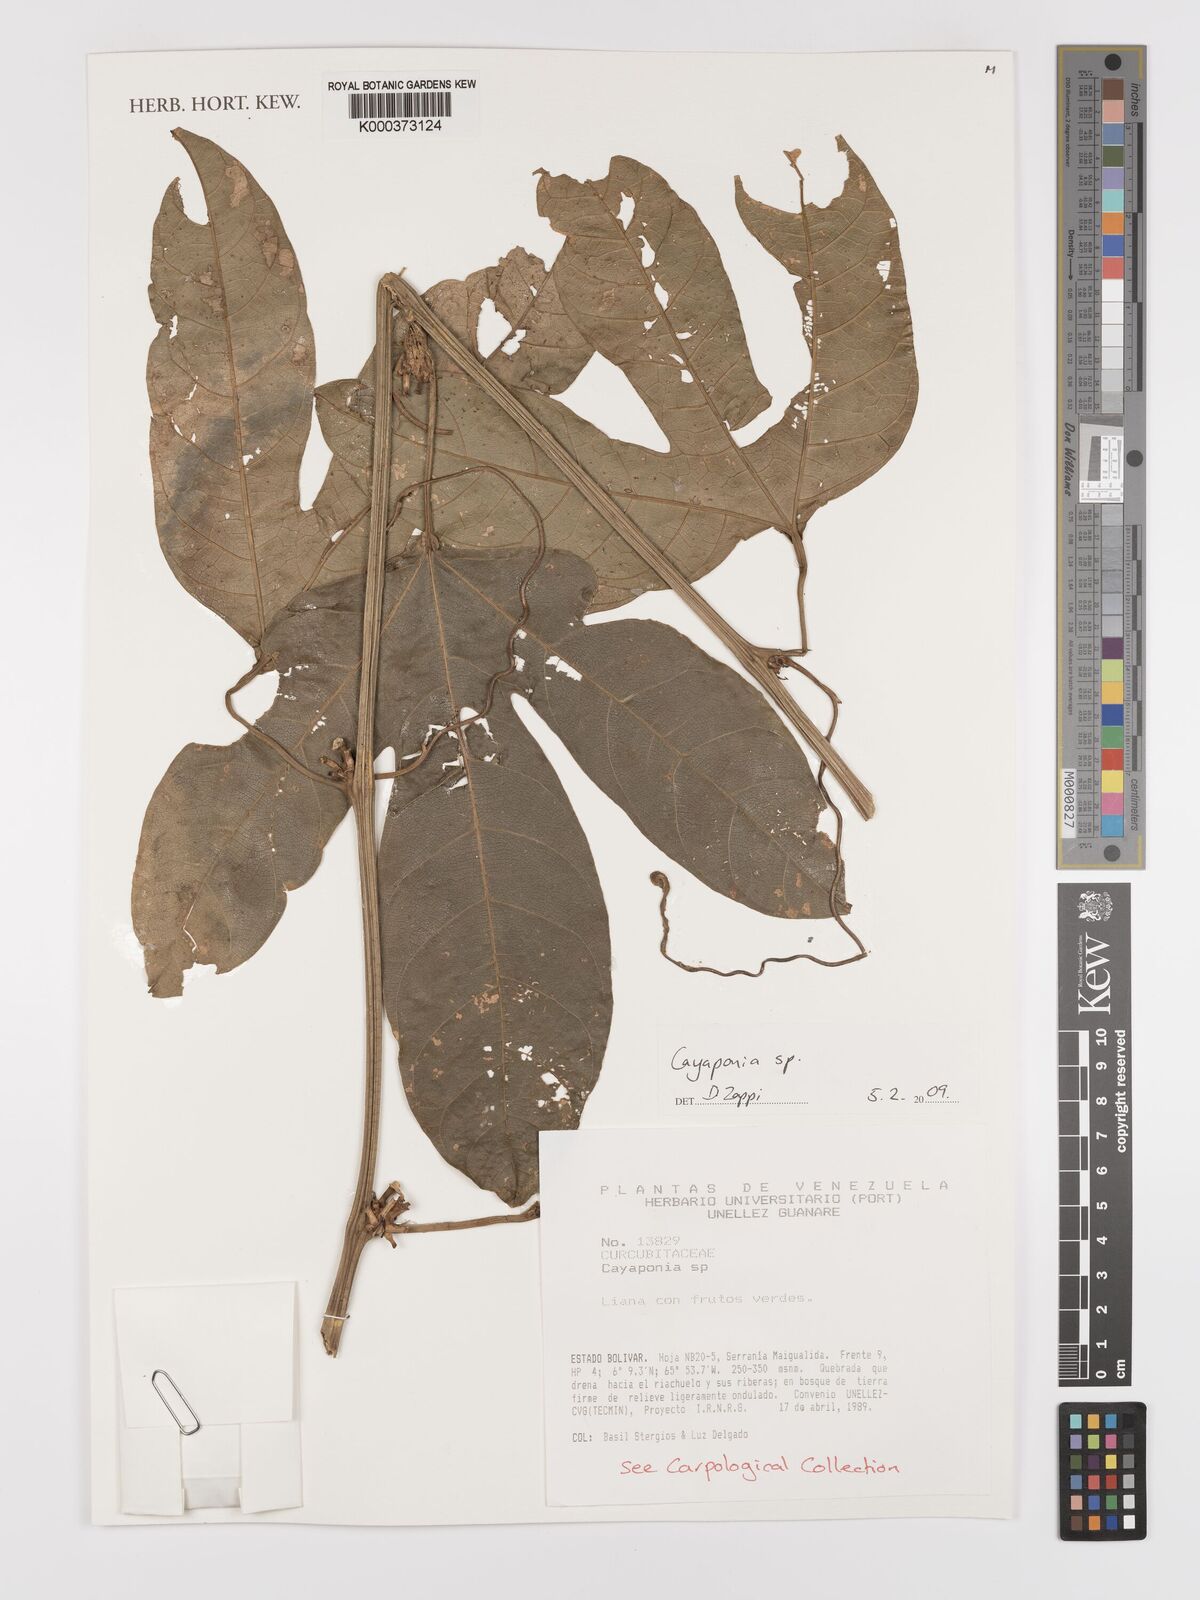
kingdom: Plantae
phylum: Tracheophyta
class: Magnoliopsida
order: Cucurbitales
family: Cucurbitaceae
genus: Cayaponia
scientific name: Cayaponia
